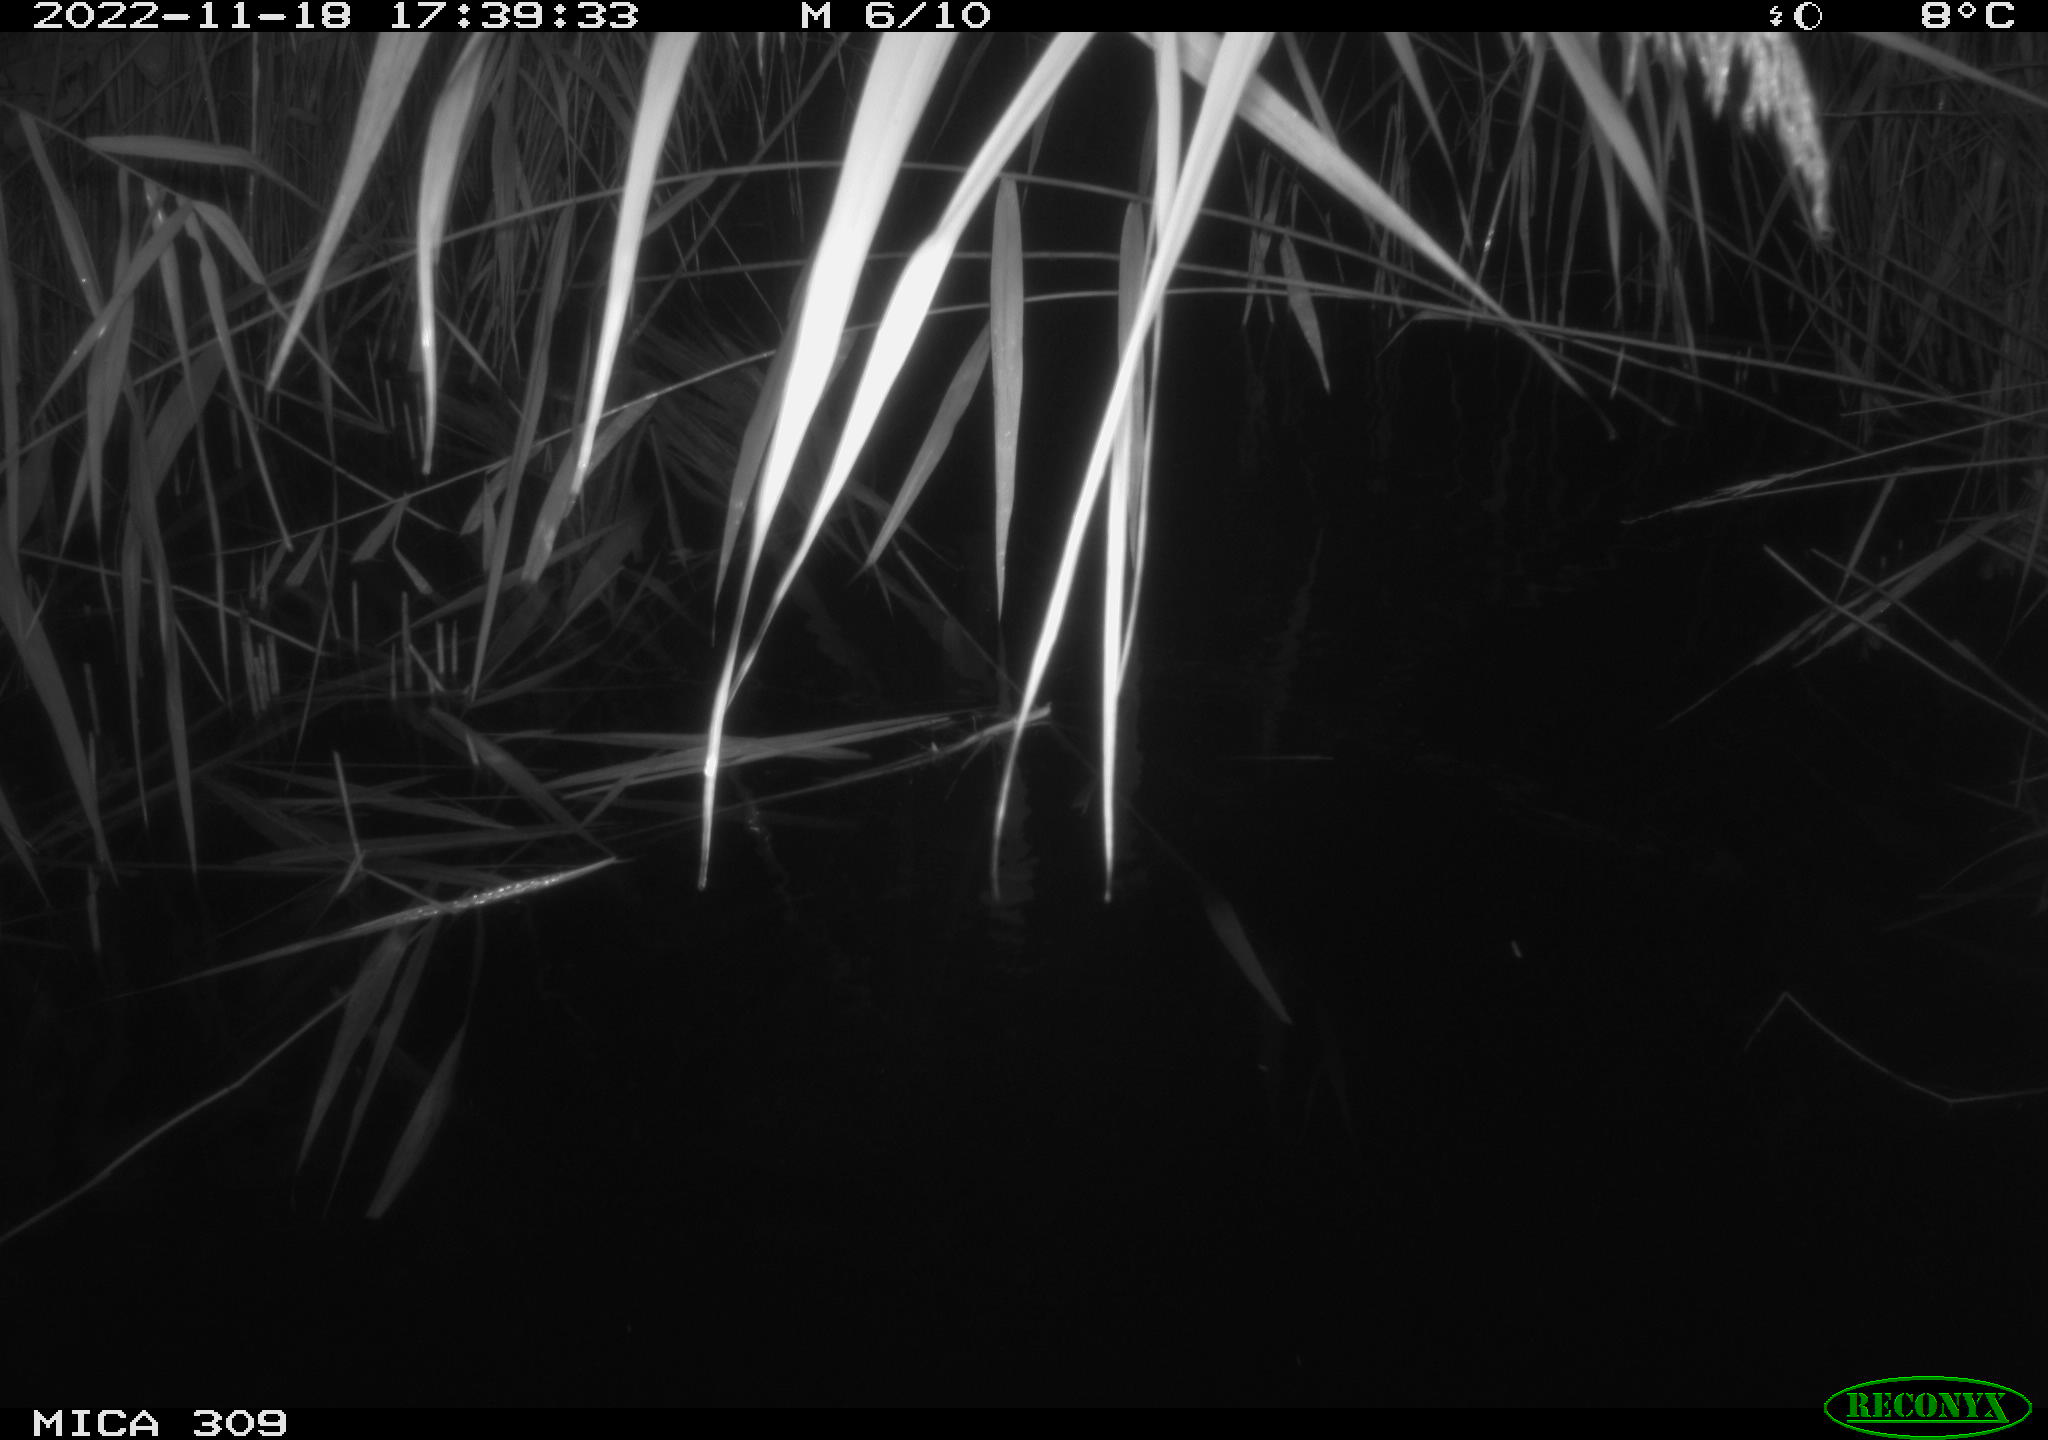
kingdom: Animalia
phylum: Chordata
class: Mammalia
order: Rodentia
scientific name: Rodentia
